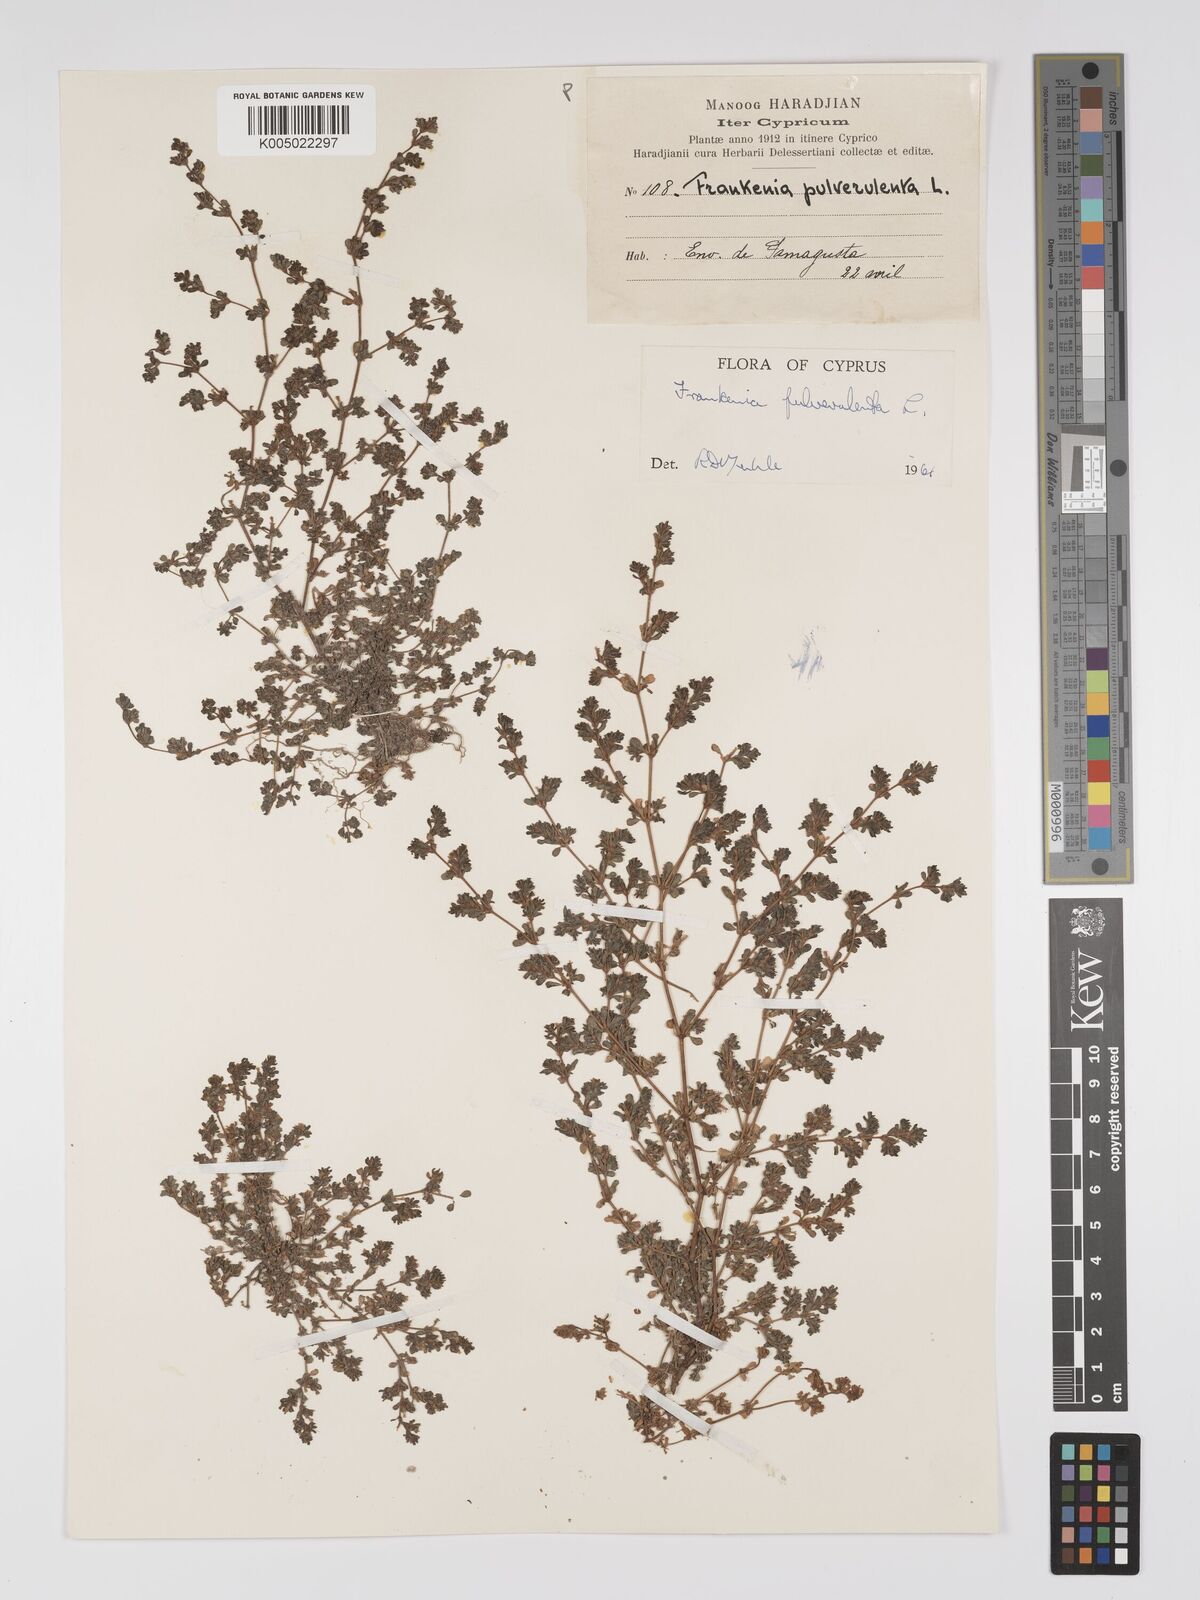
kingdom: Plantae
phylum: Tracheophyta
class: Magnoliopsida
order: Caryophyllales
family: Frankeniaceae
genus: Frankenia
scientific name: Frankenia pulverulenta
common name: European seaheath
